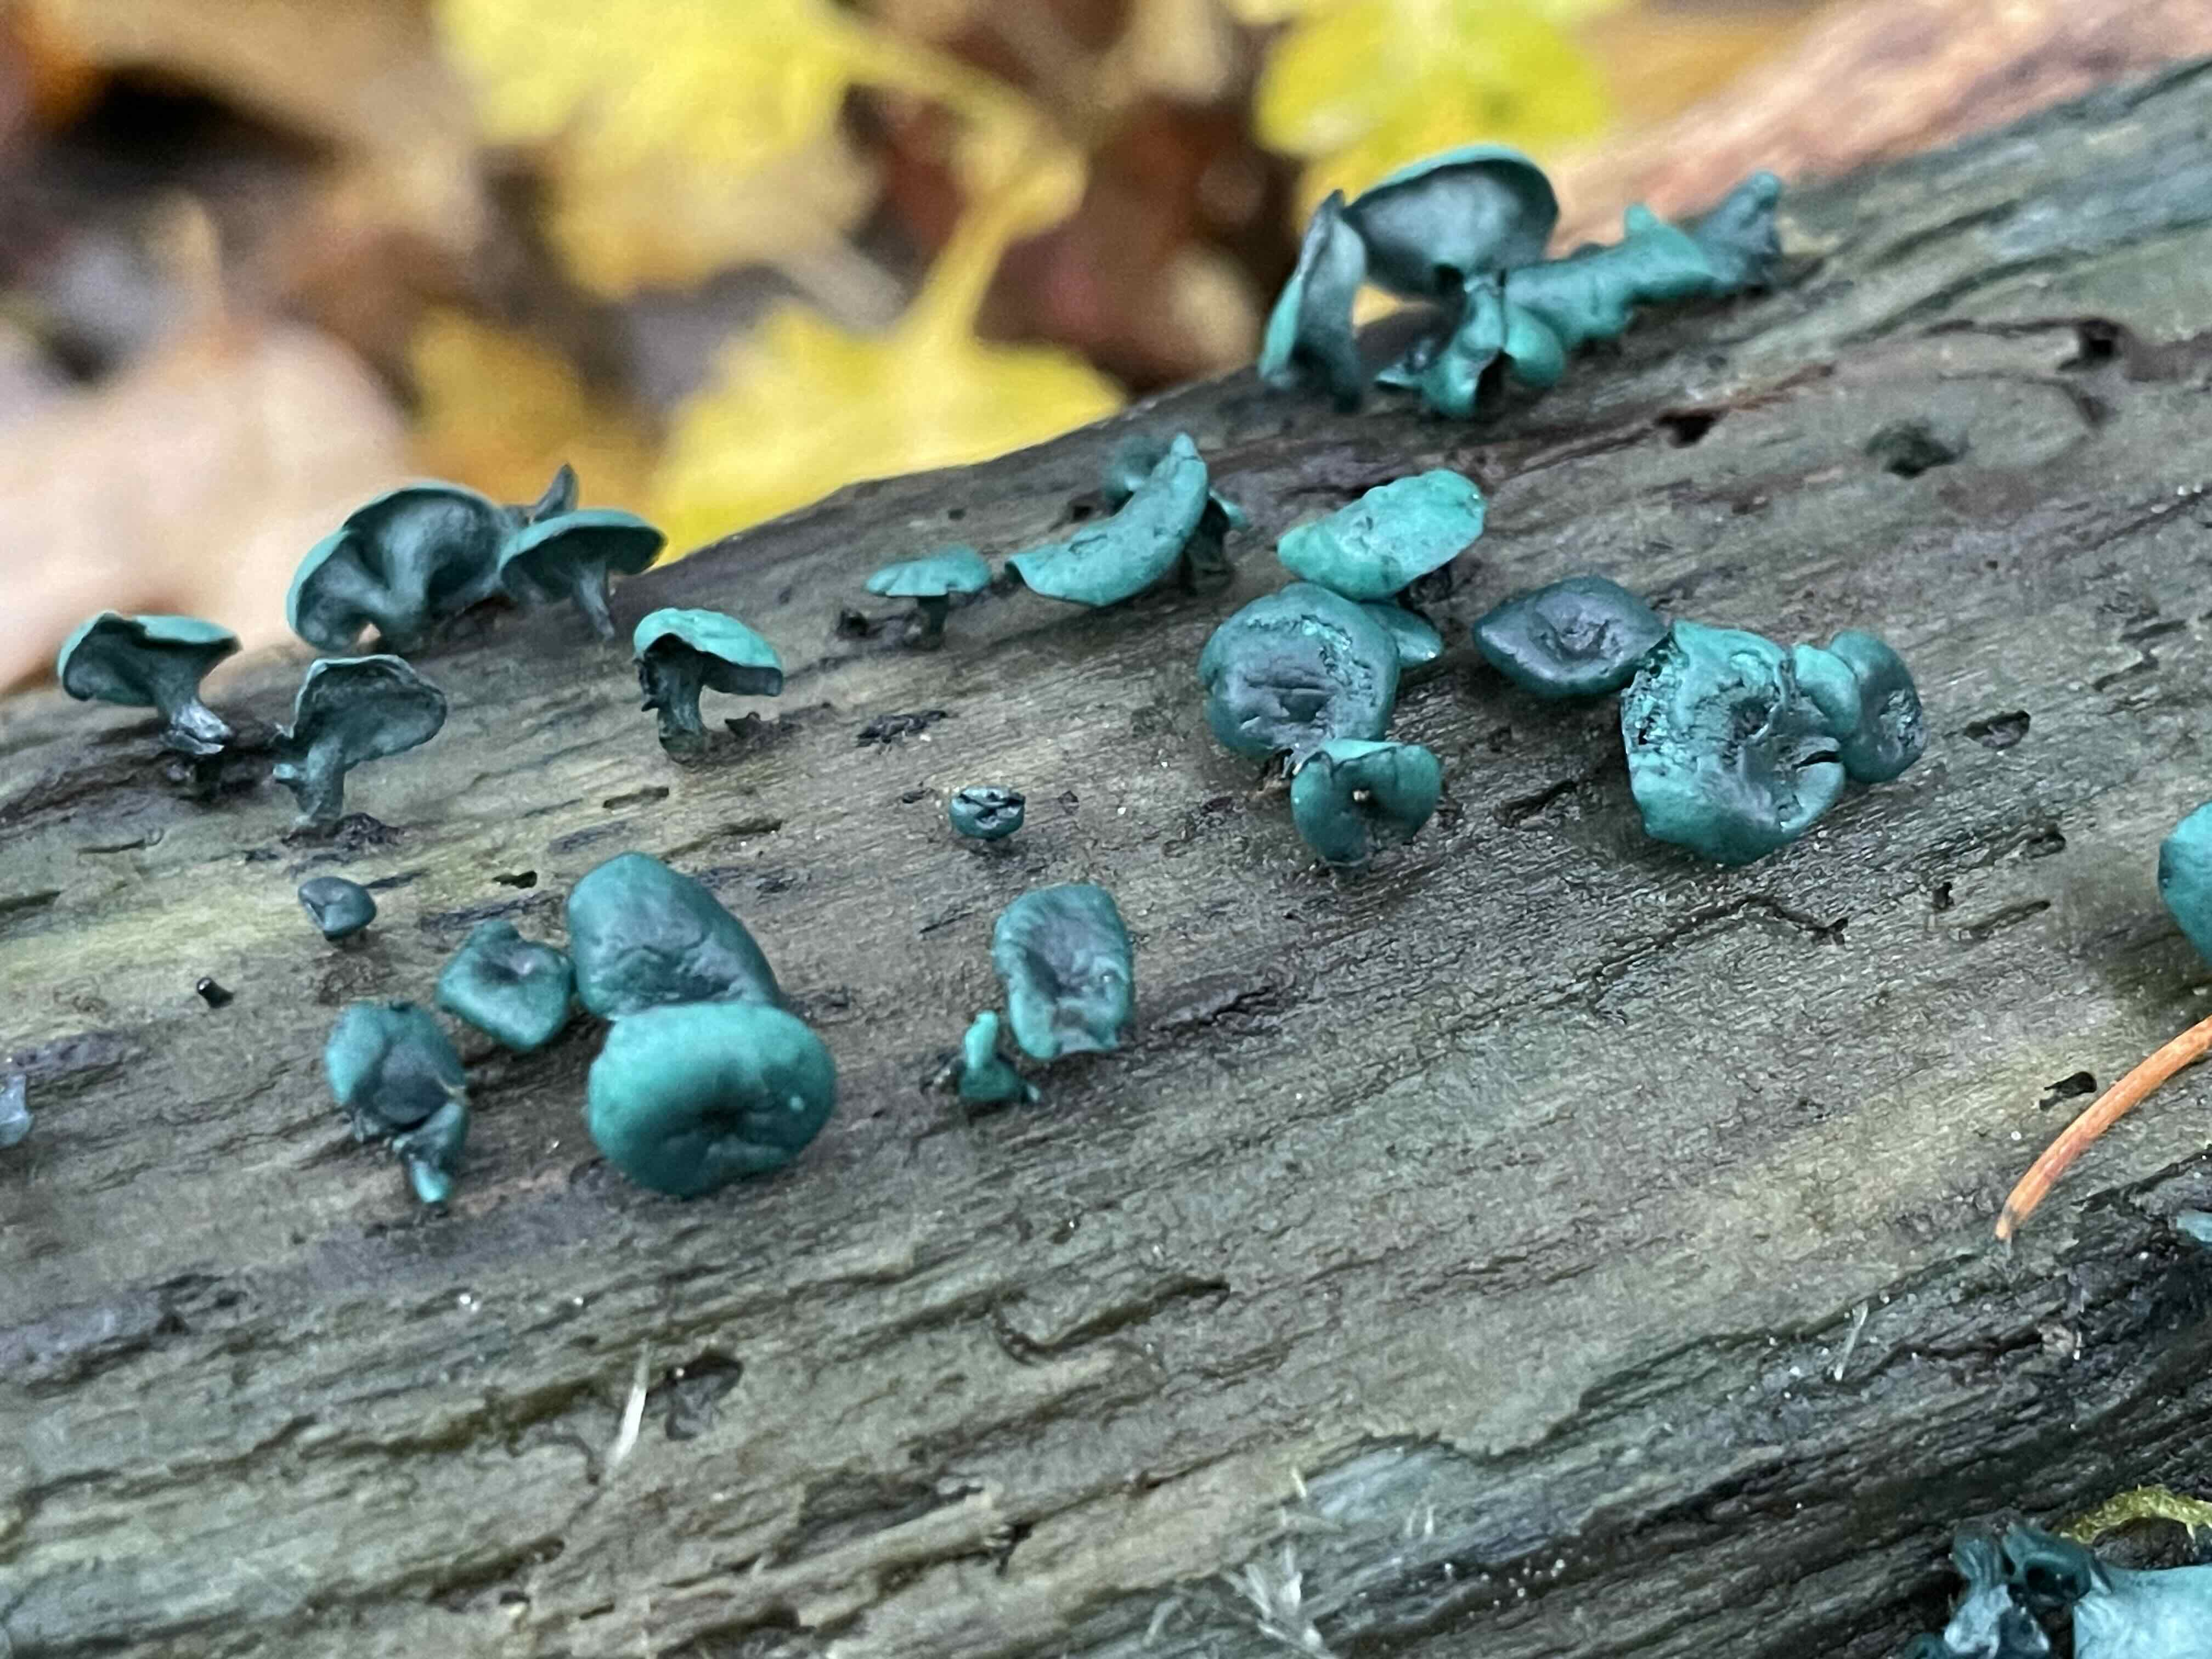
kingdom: Fungi
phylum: Ascomycota
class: Leotiomycetes
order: Helotiales
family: Chlorociboriaceae
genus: Chlorociboria
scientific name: Chlorociboria aeruginascens
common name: almindelig grønskive
